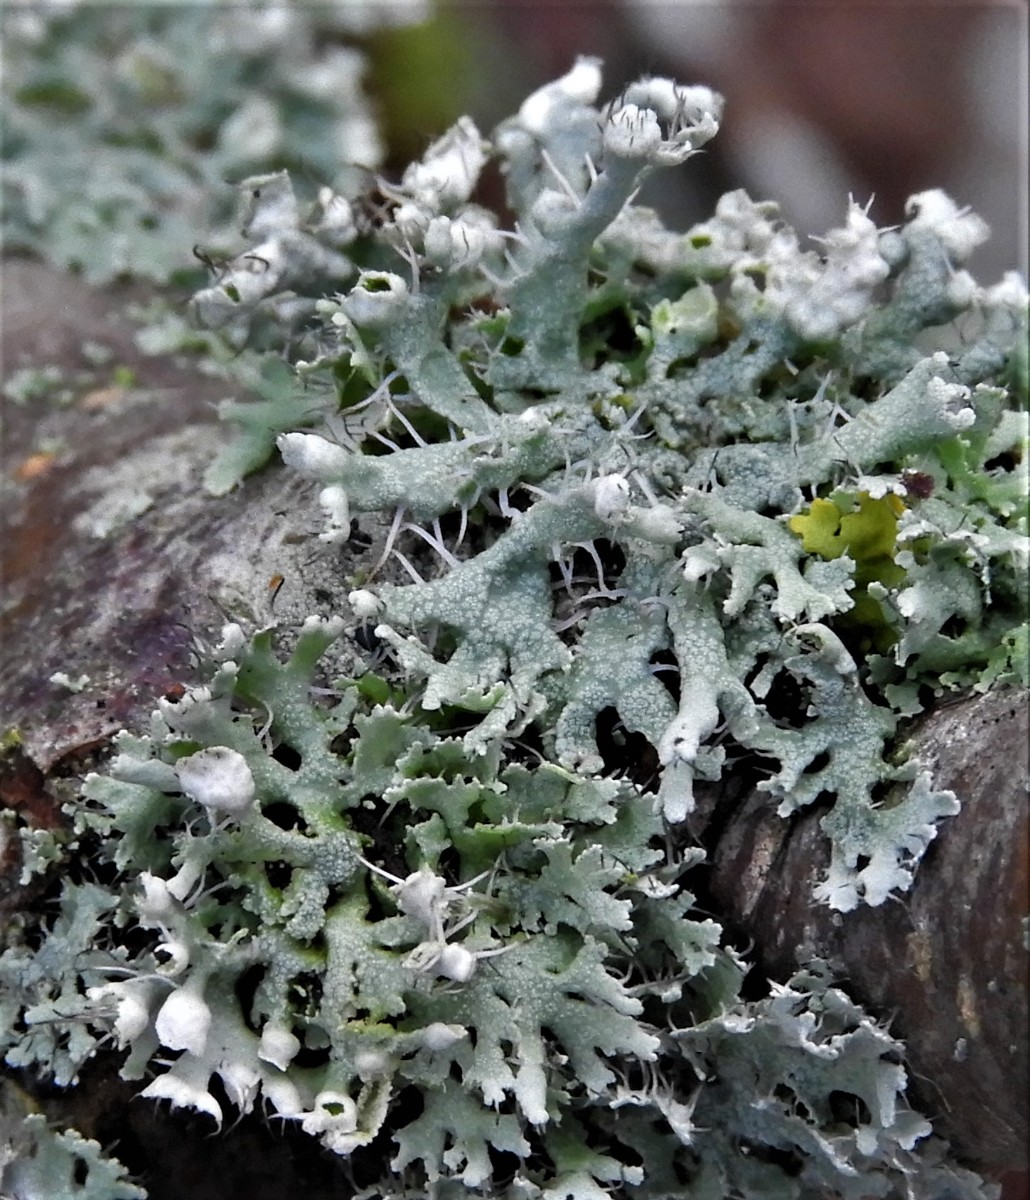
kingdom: Fungi
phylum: Ascomycota
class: Lecanoromycetes
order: Caliciales
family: Physciaceae
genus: Physcia
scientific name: Physcia adscendens
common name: hætte-rosetlav
